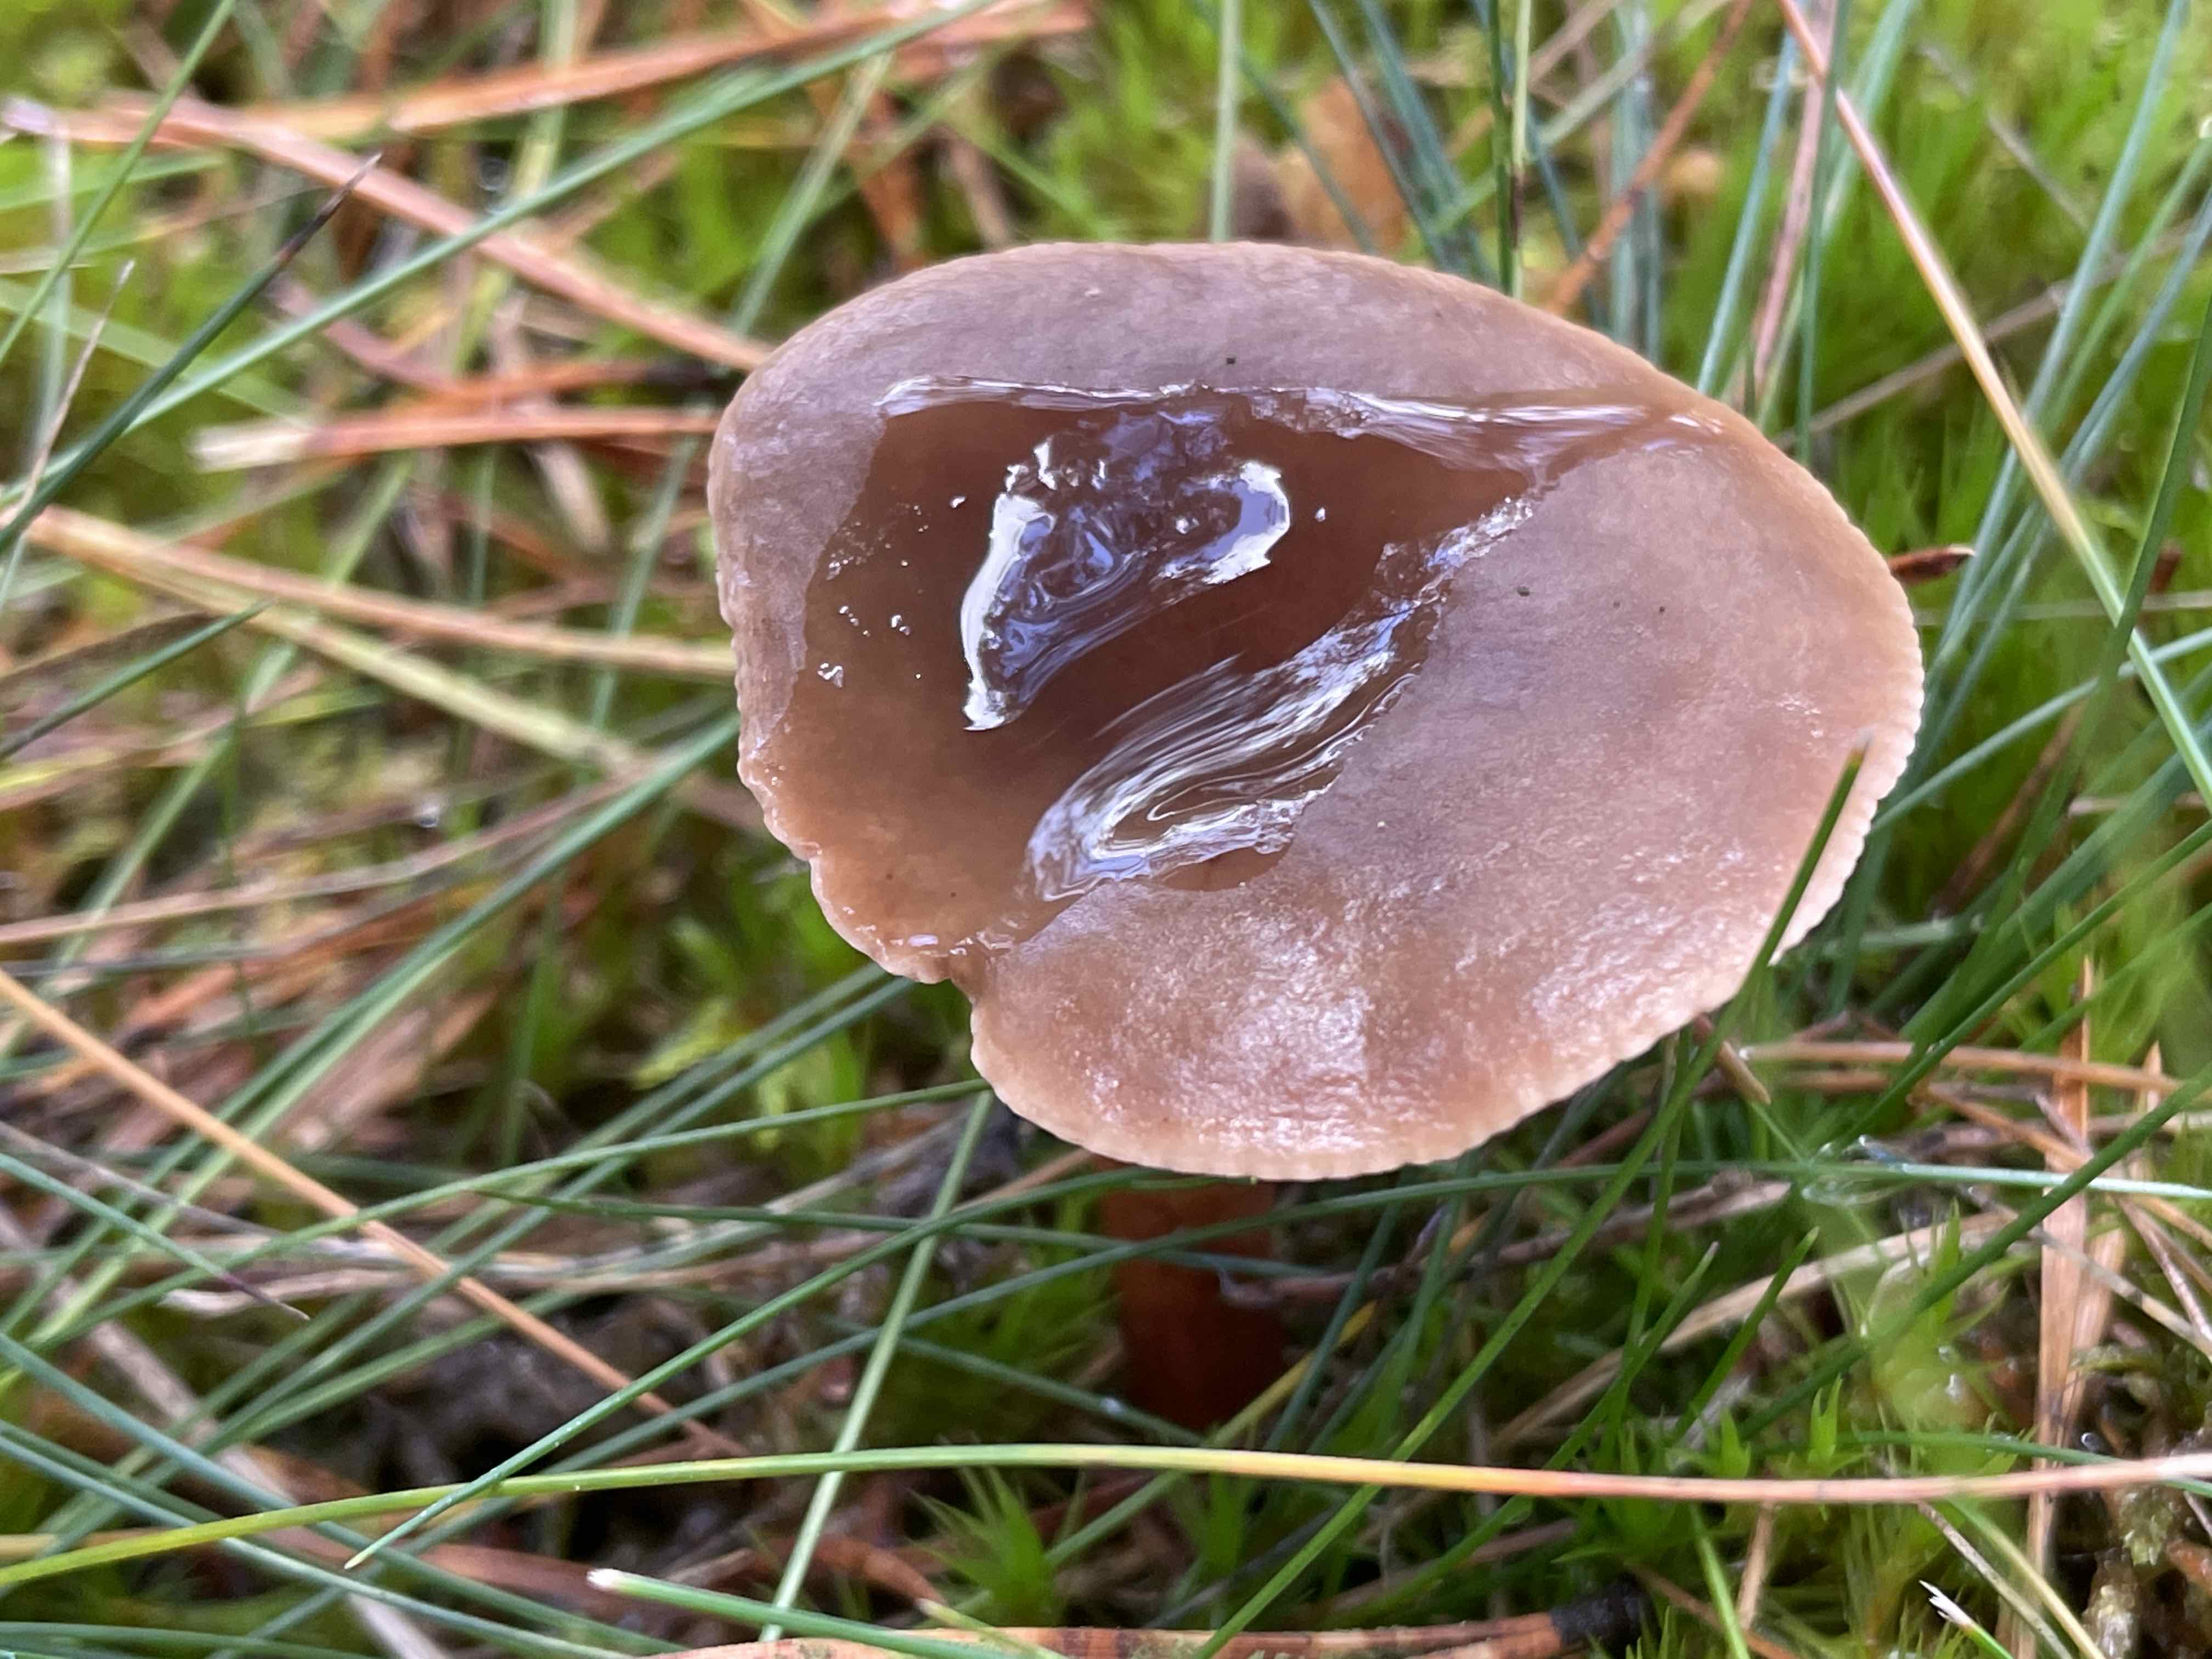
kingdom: Fungi
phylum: Basidiomycota
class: Agaricomycetes
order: Russulales
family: Russulaceae
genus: Lactarius
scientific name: Lactarius hepaticus
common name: leverbrun mælkehat
